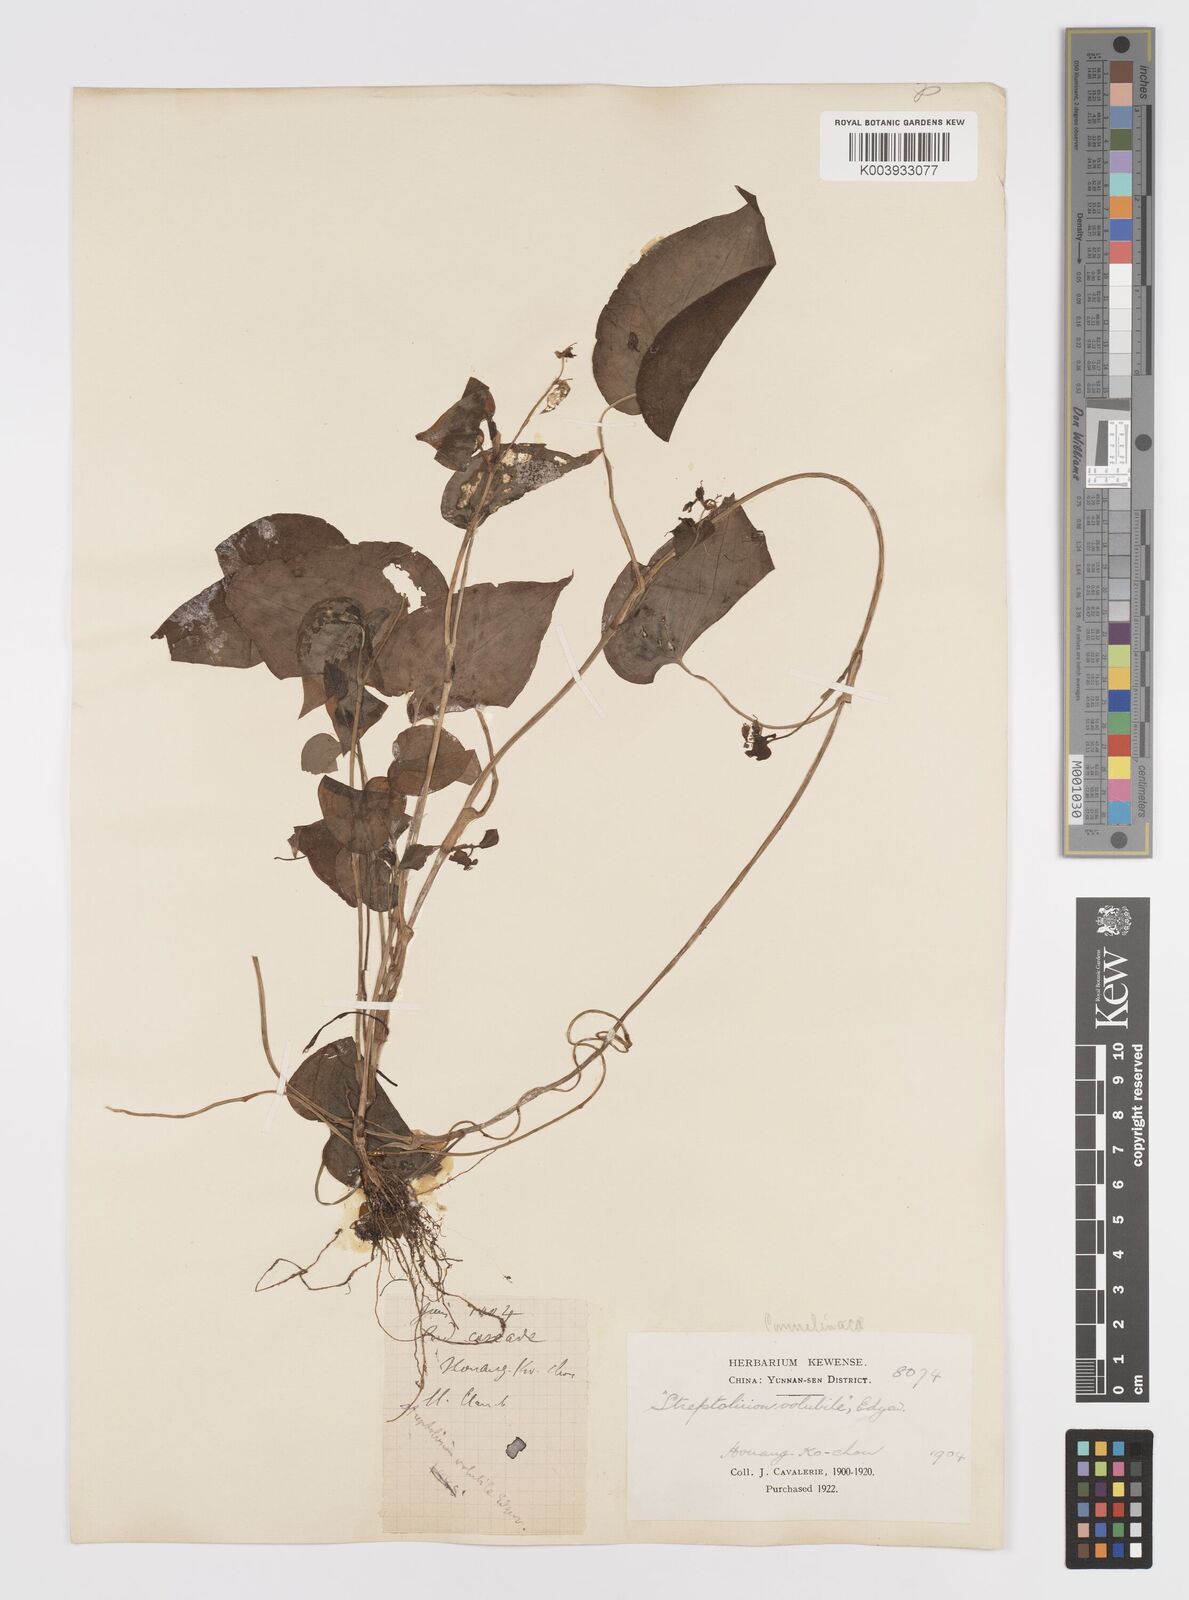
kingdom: Plantae
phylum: Tracheophyta
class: Liliopsida
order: Commelinales
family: Commelinaceae
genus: Streptolirion
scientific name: Streptolirion volubile
